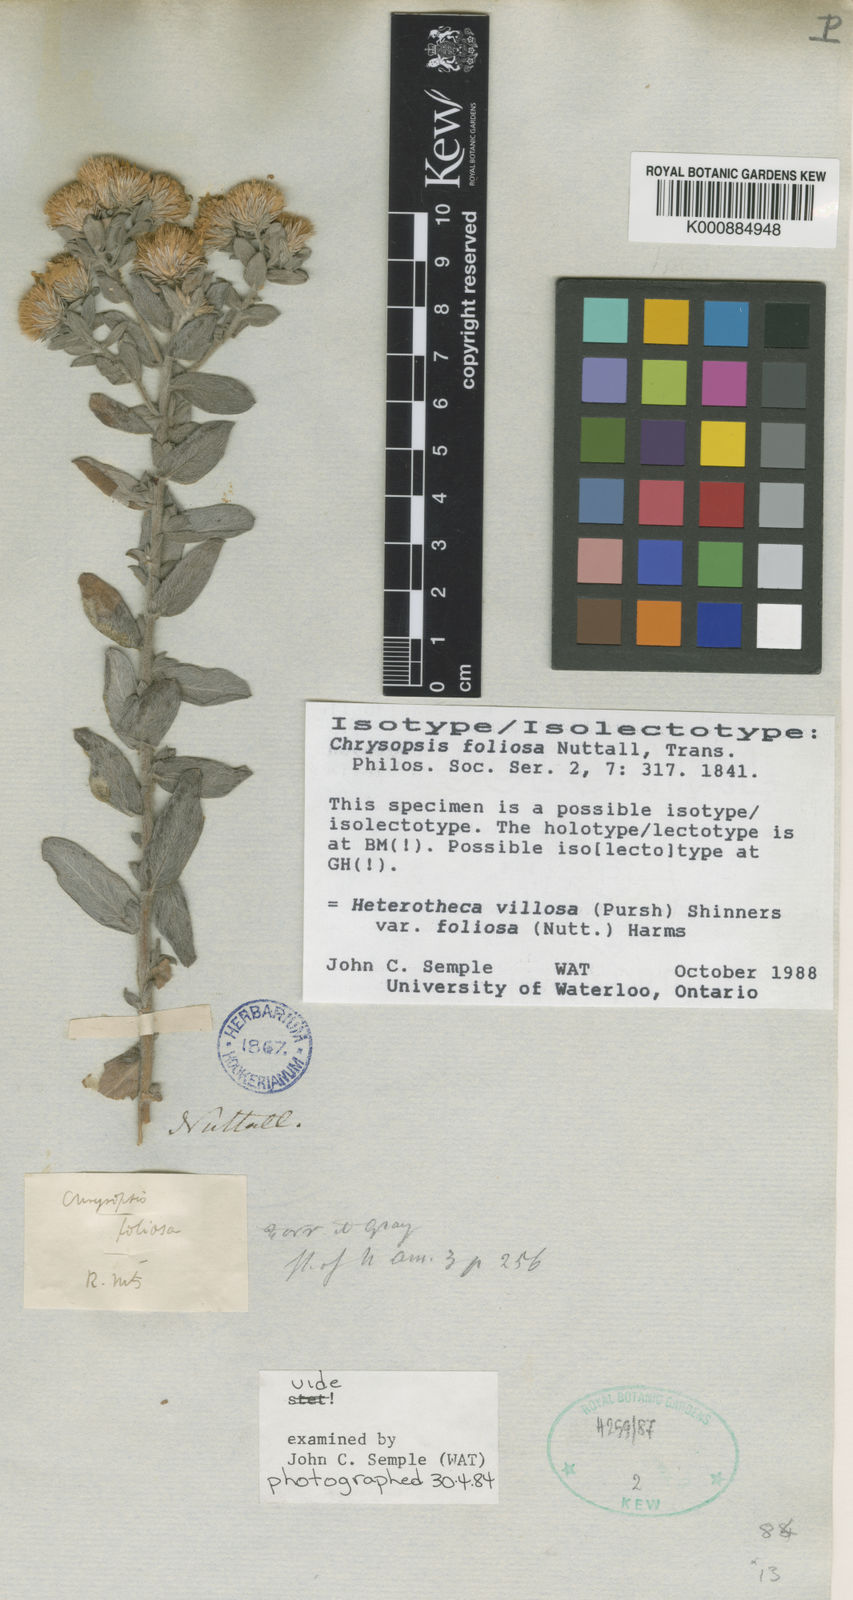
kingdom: Plantae
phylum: Tracheophyta
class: Magnoliopsida
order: Asterales
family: Asteraceae
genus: Heterotheca
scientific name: Heterotheca villosa
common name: Hairy false goldenaster
